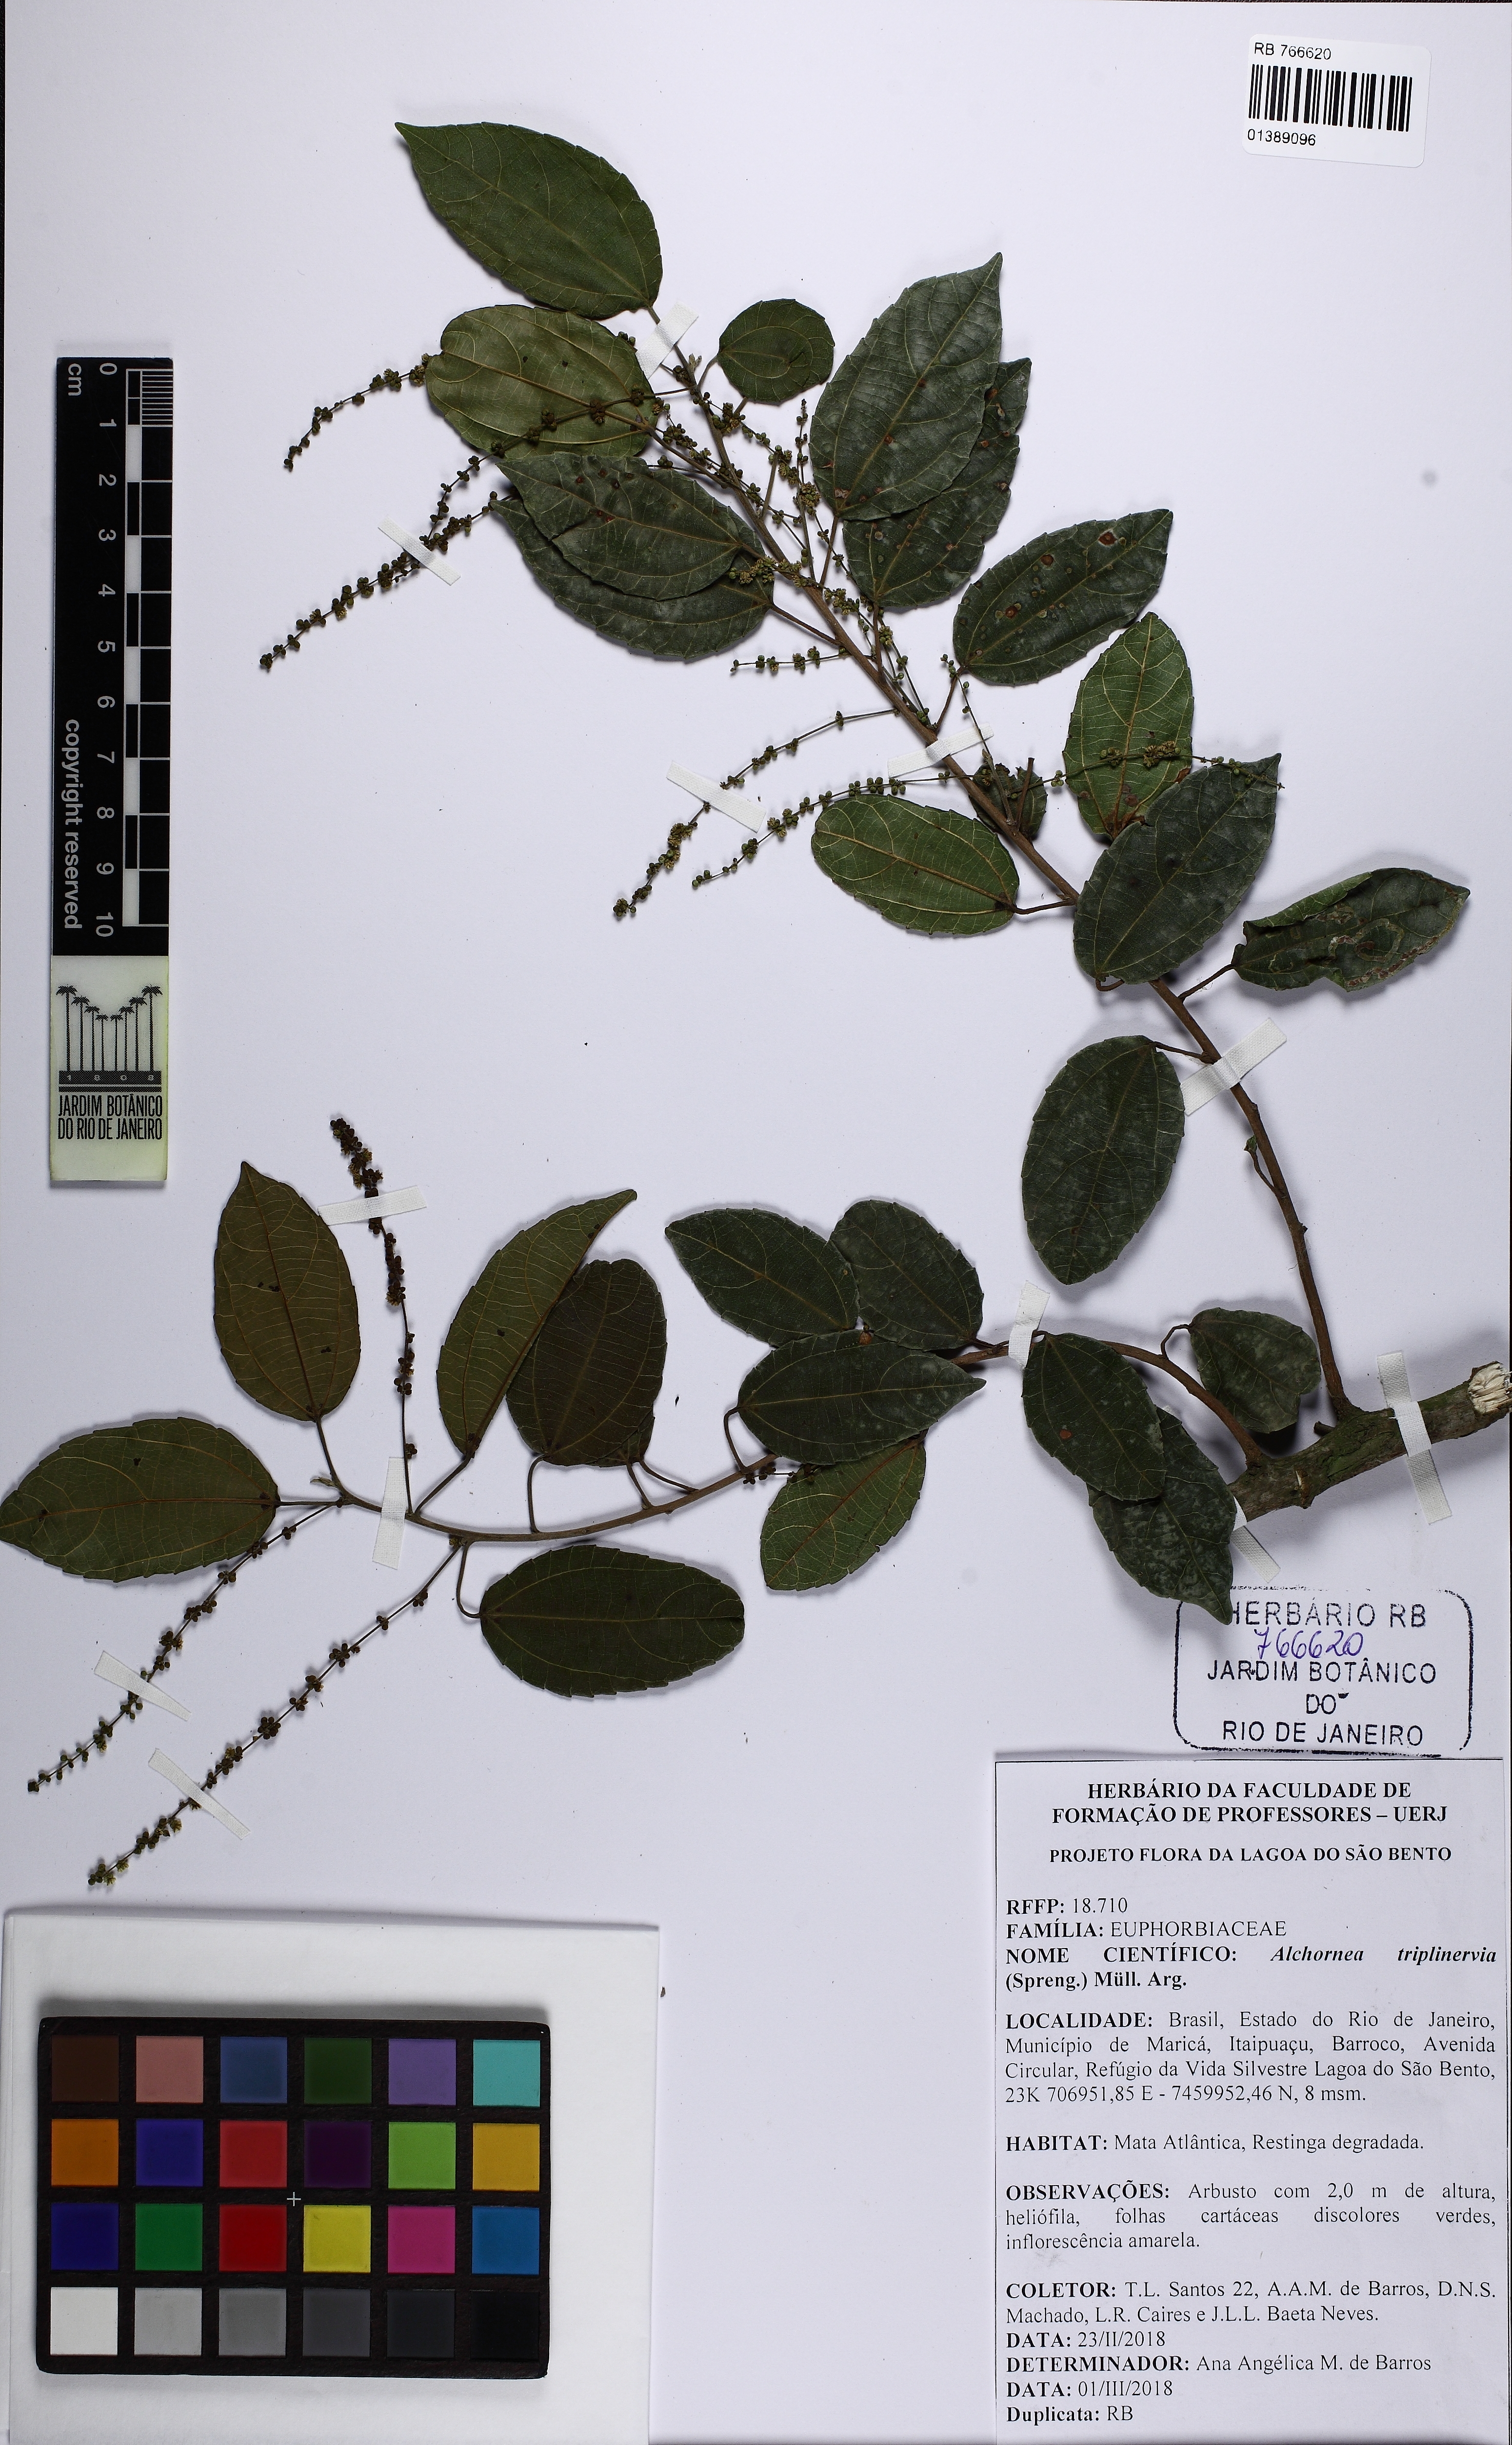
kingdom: Plantae
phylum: Tracheophyta
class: Magnoliopsida
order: Malpighiales
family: Euphorbiaceae
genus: Alchornea
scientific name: Alchornea triplinervia
